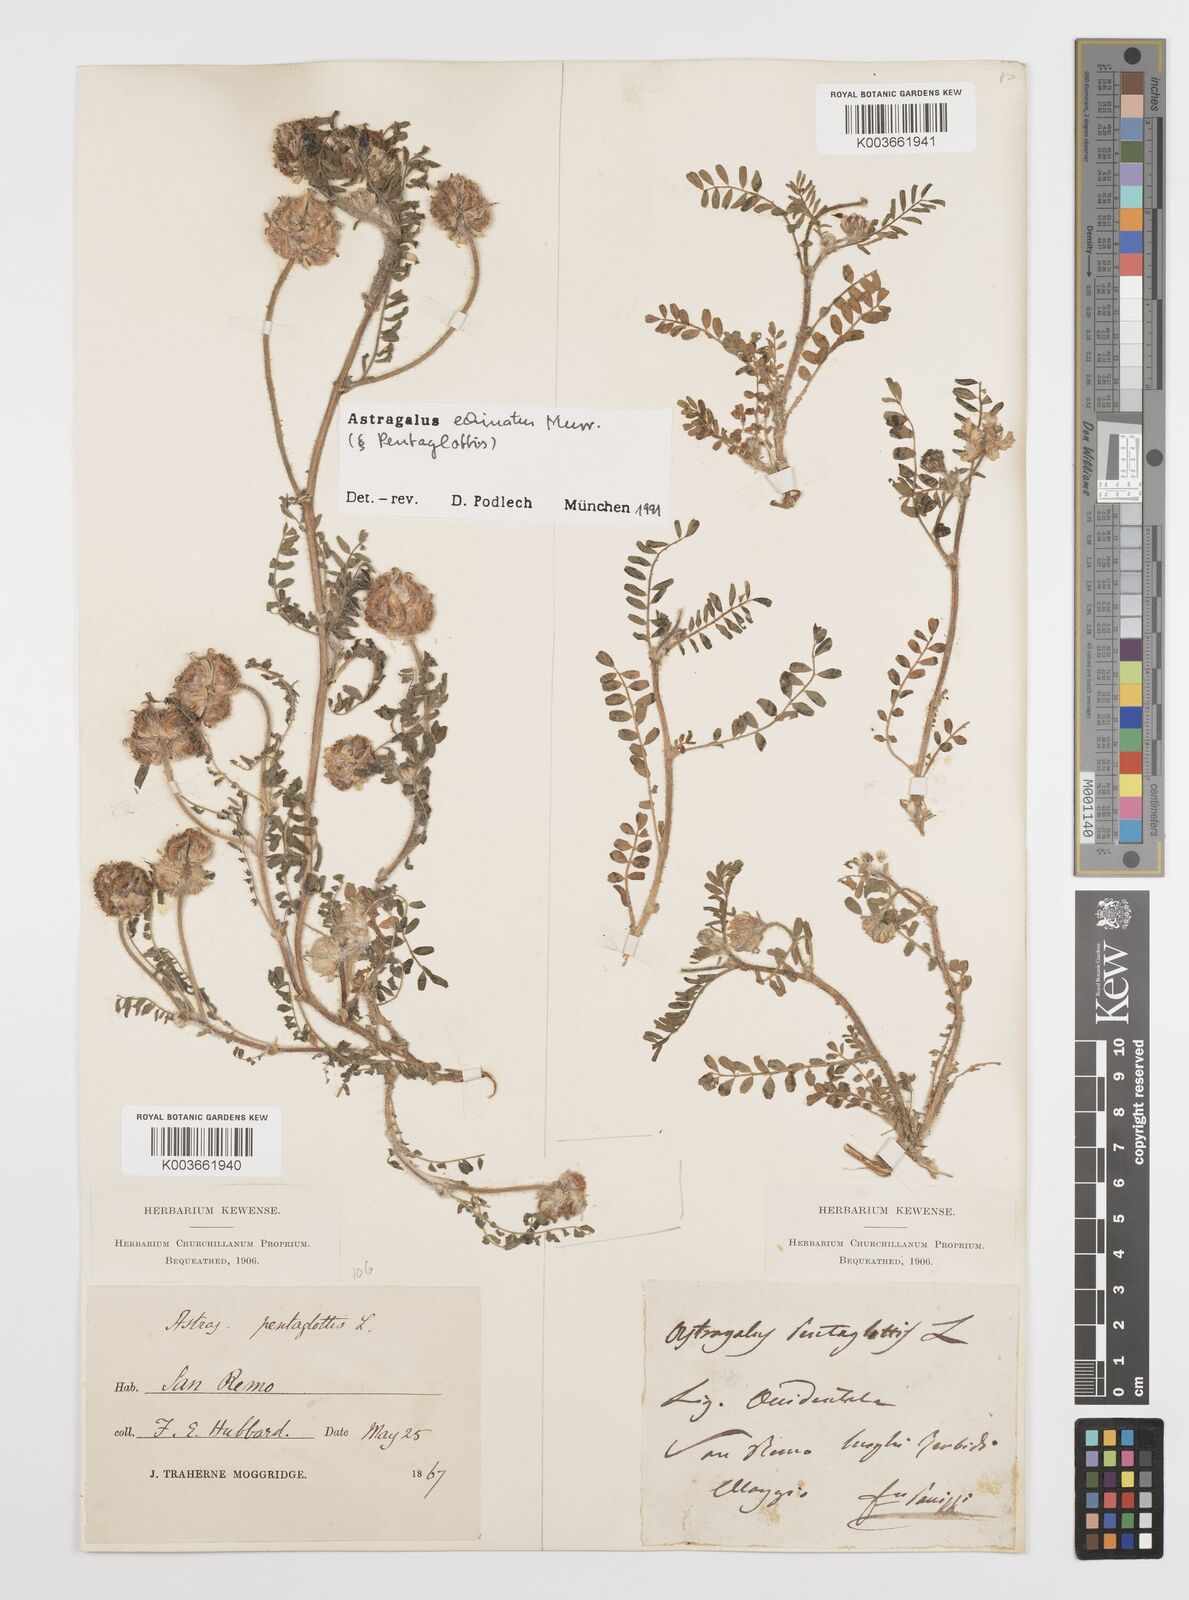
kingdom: Plantae
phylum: Tracheophyta
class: Magnoliopsida
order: Fabales
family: Fabaceae
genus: Astragalus
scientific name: Astragalus echinatus
